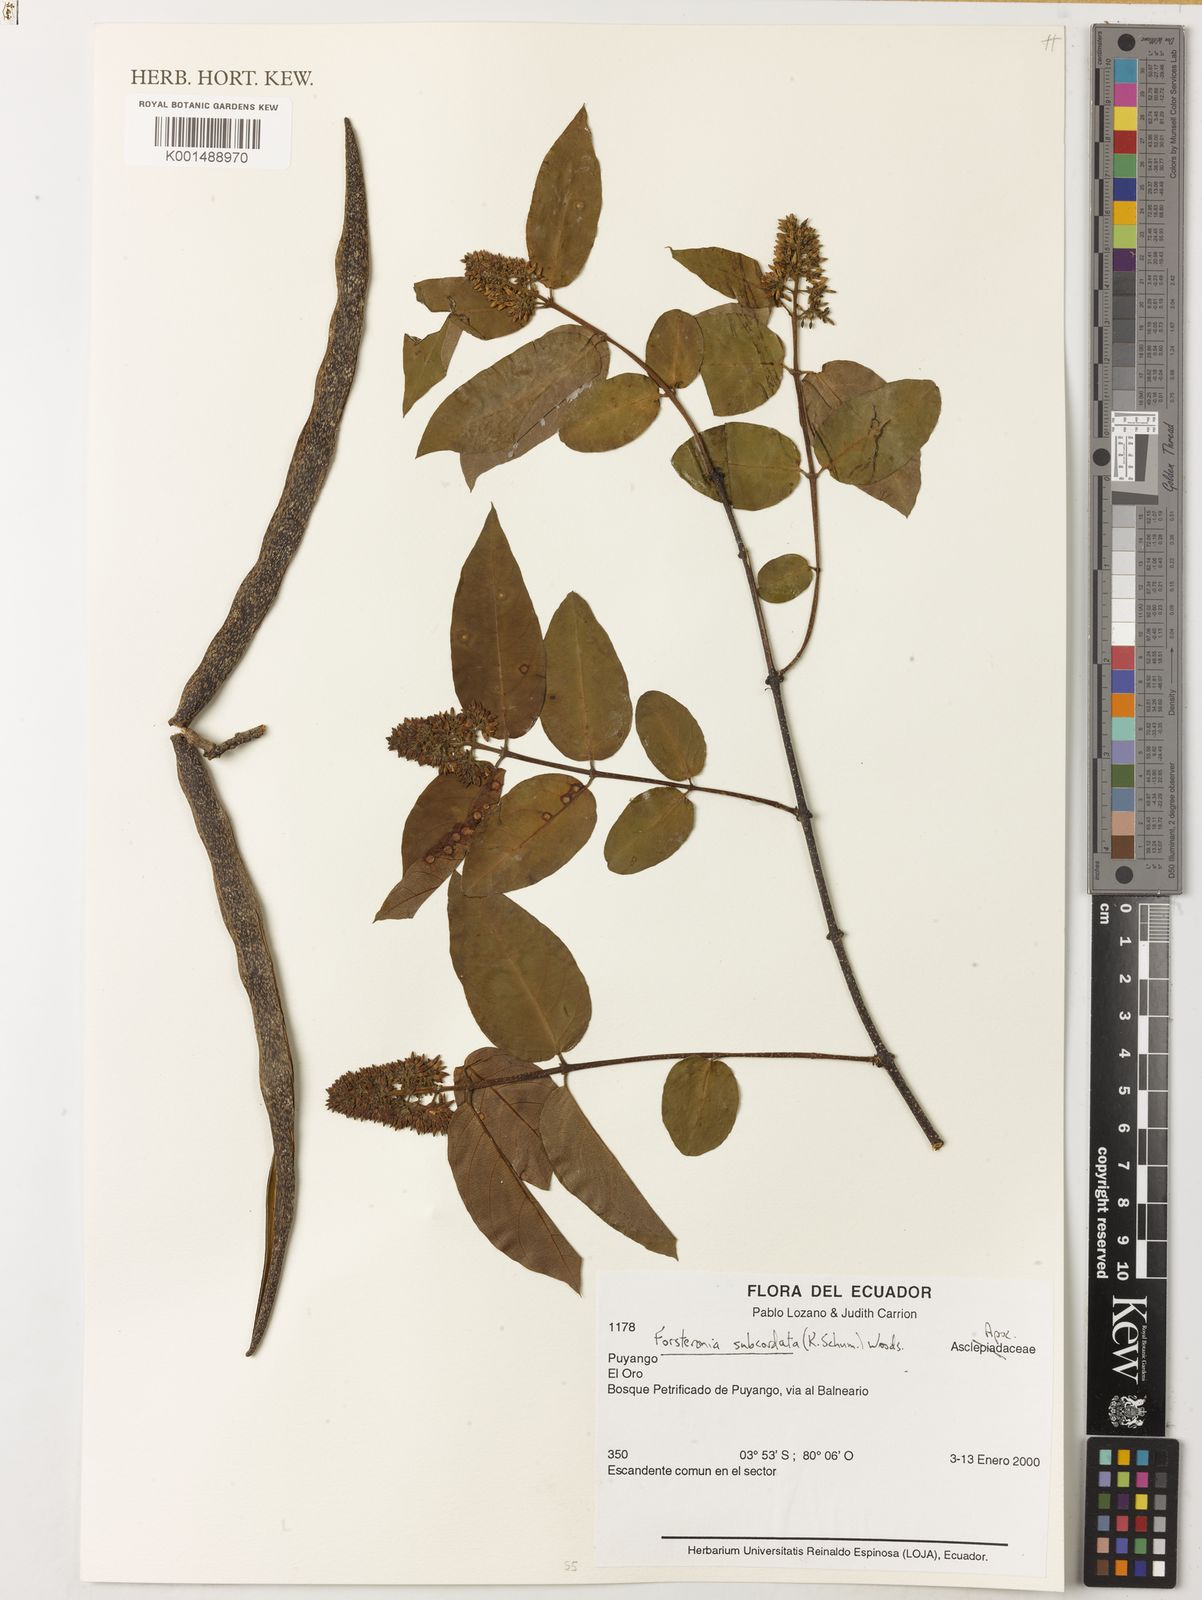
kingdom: Plantae
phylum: Tracheophyta
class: Magnoliopsida
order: Gentianales
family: Apocynaceae
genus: Forsteronia
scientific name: Forsteronia subcordata
